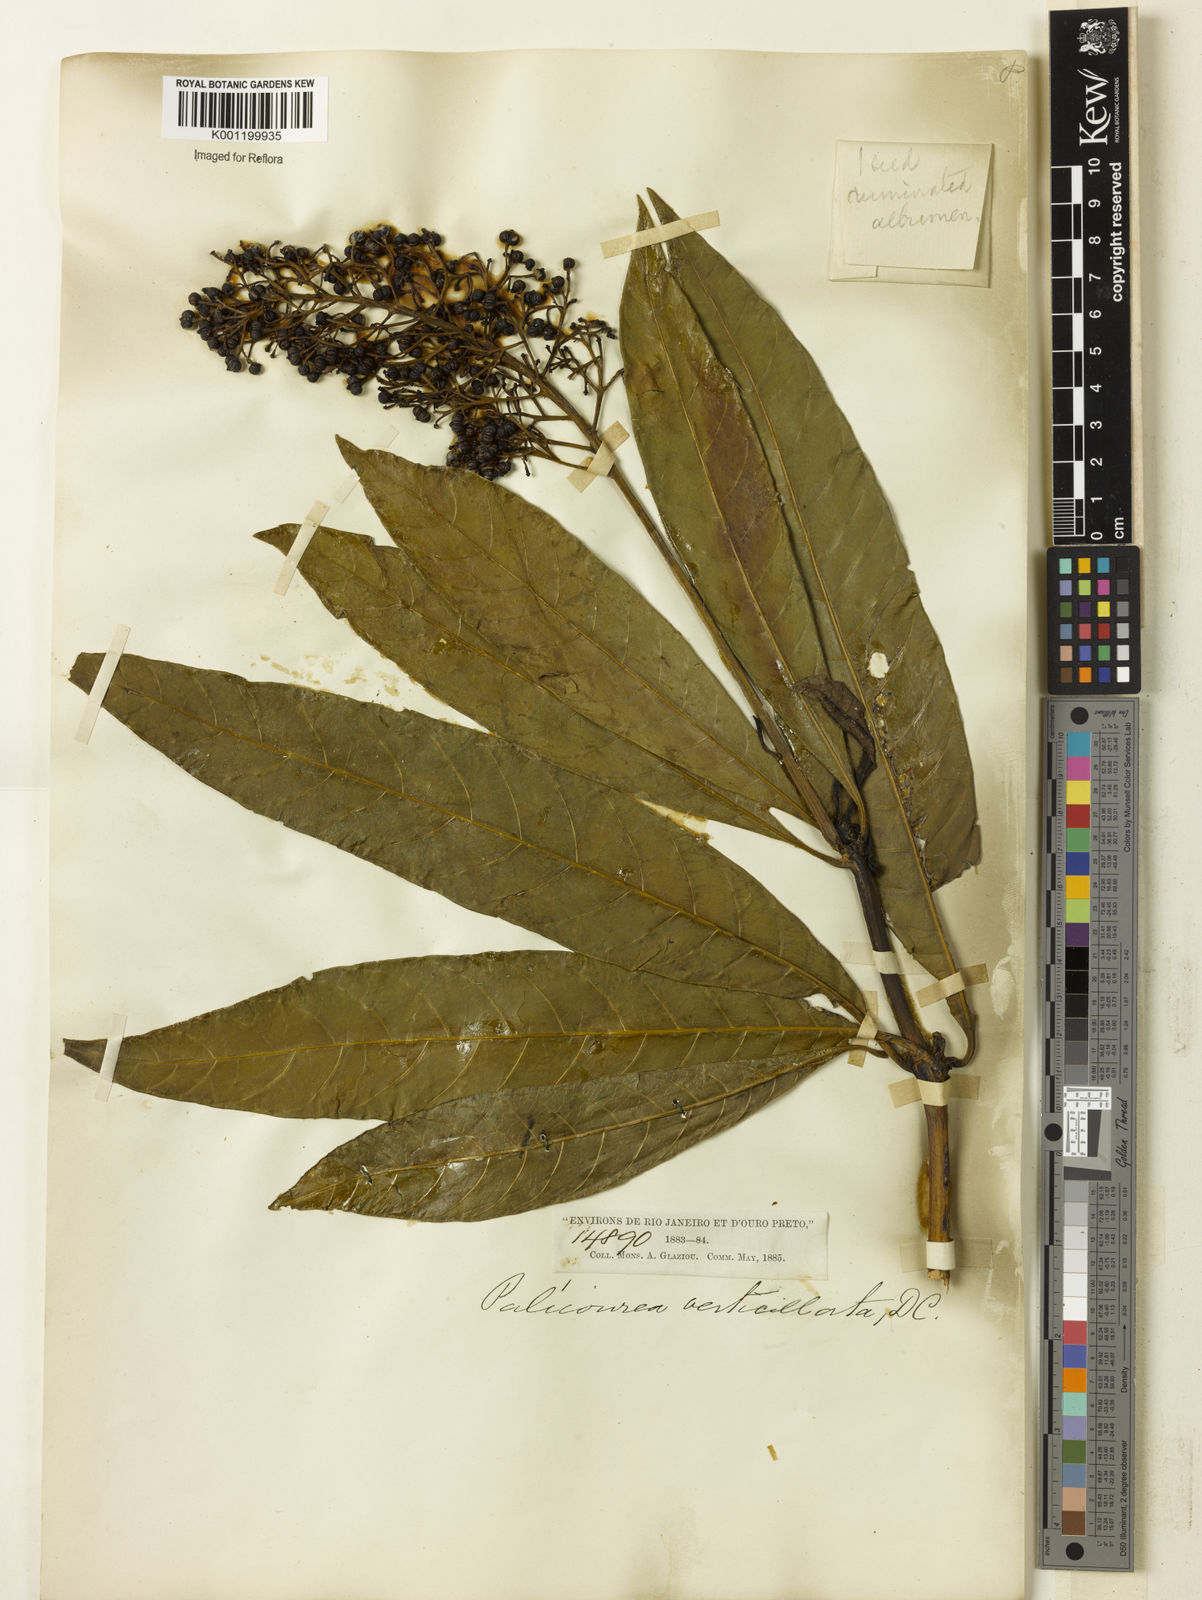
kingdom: Plantae
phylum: Tracheophyta
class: Magnoliopsida
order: Gentianales
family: Rubiaceae
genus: Palicourea
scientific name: Palicourea tetraphylla
